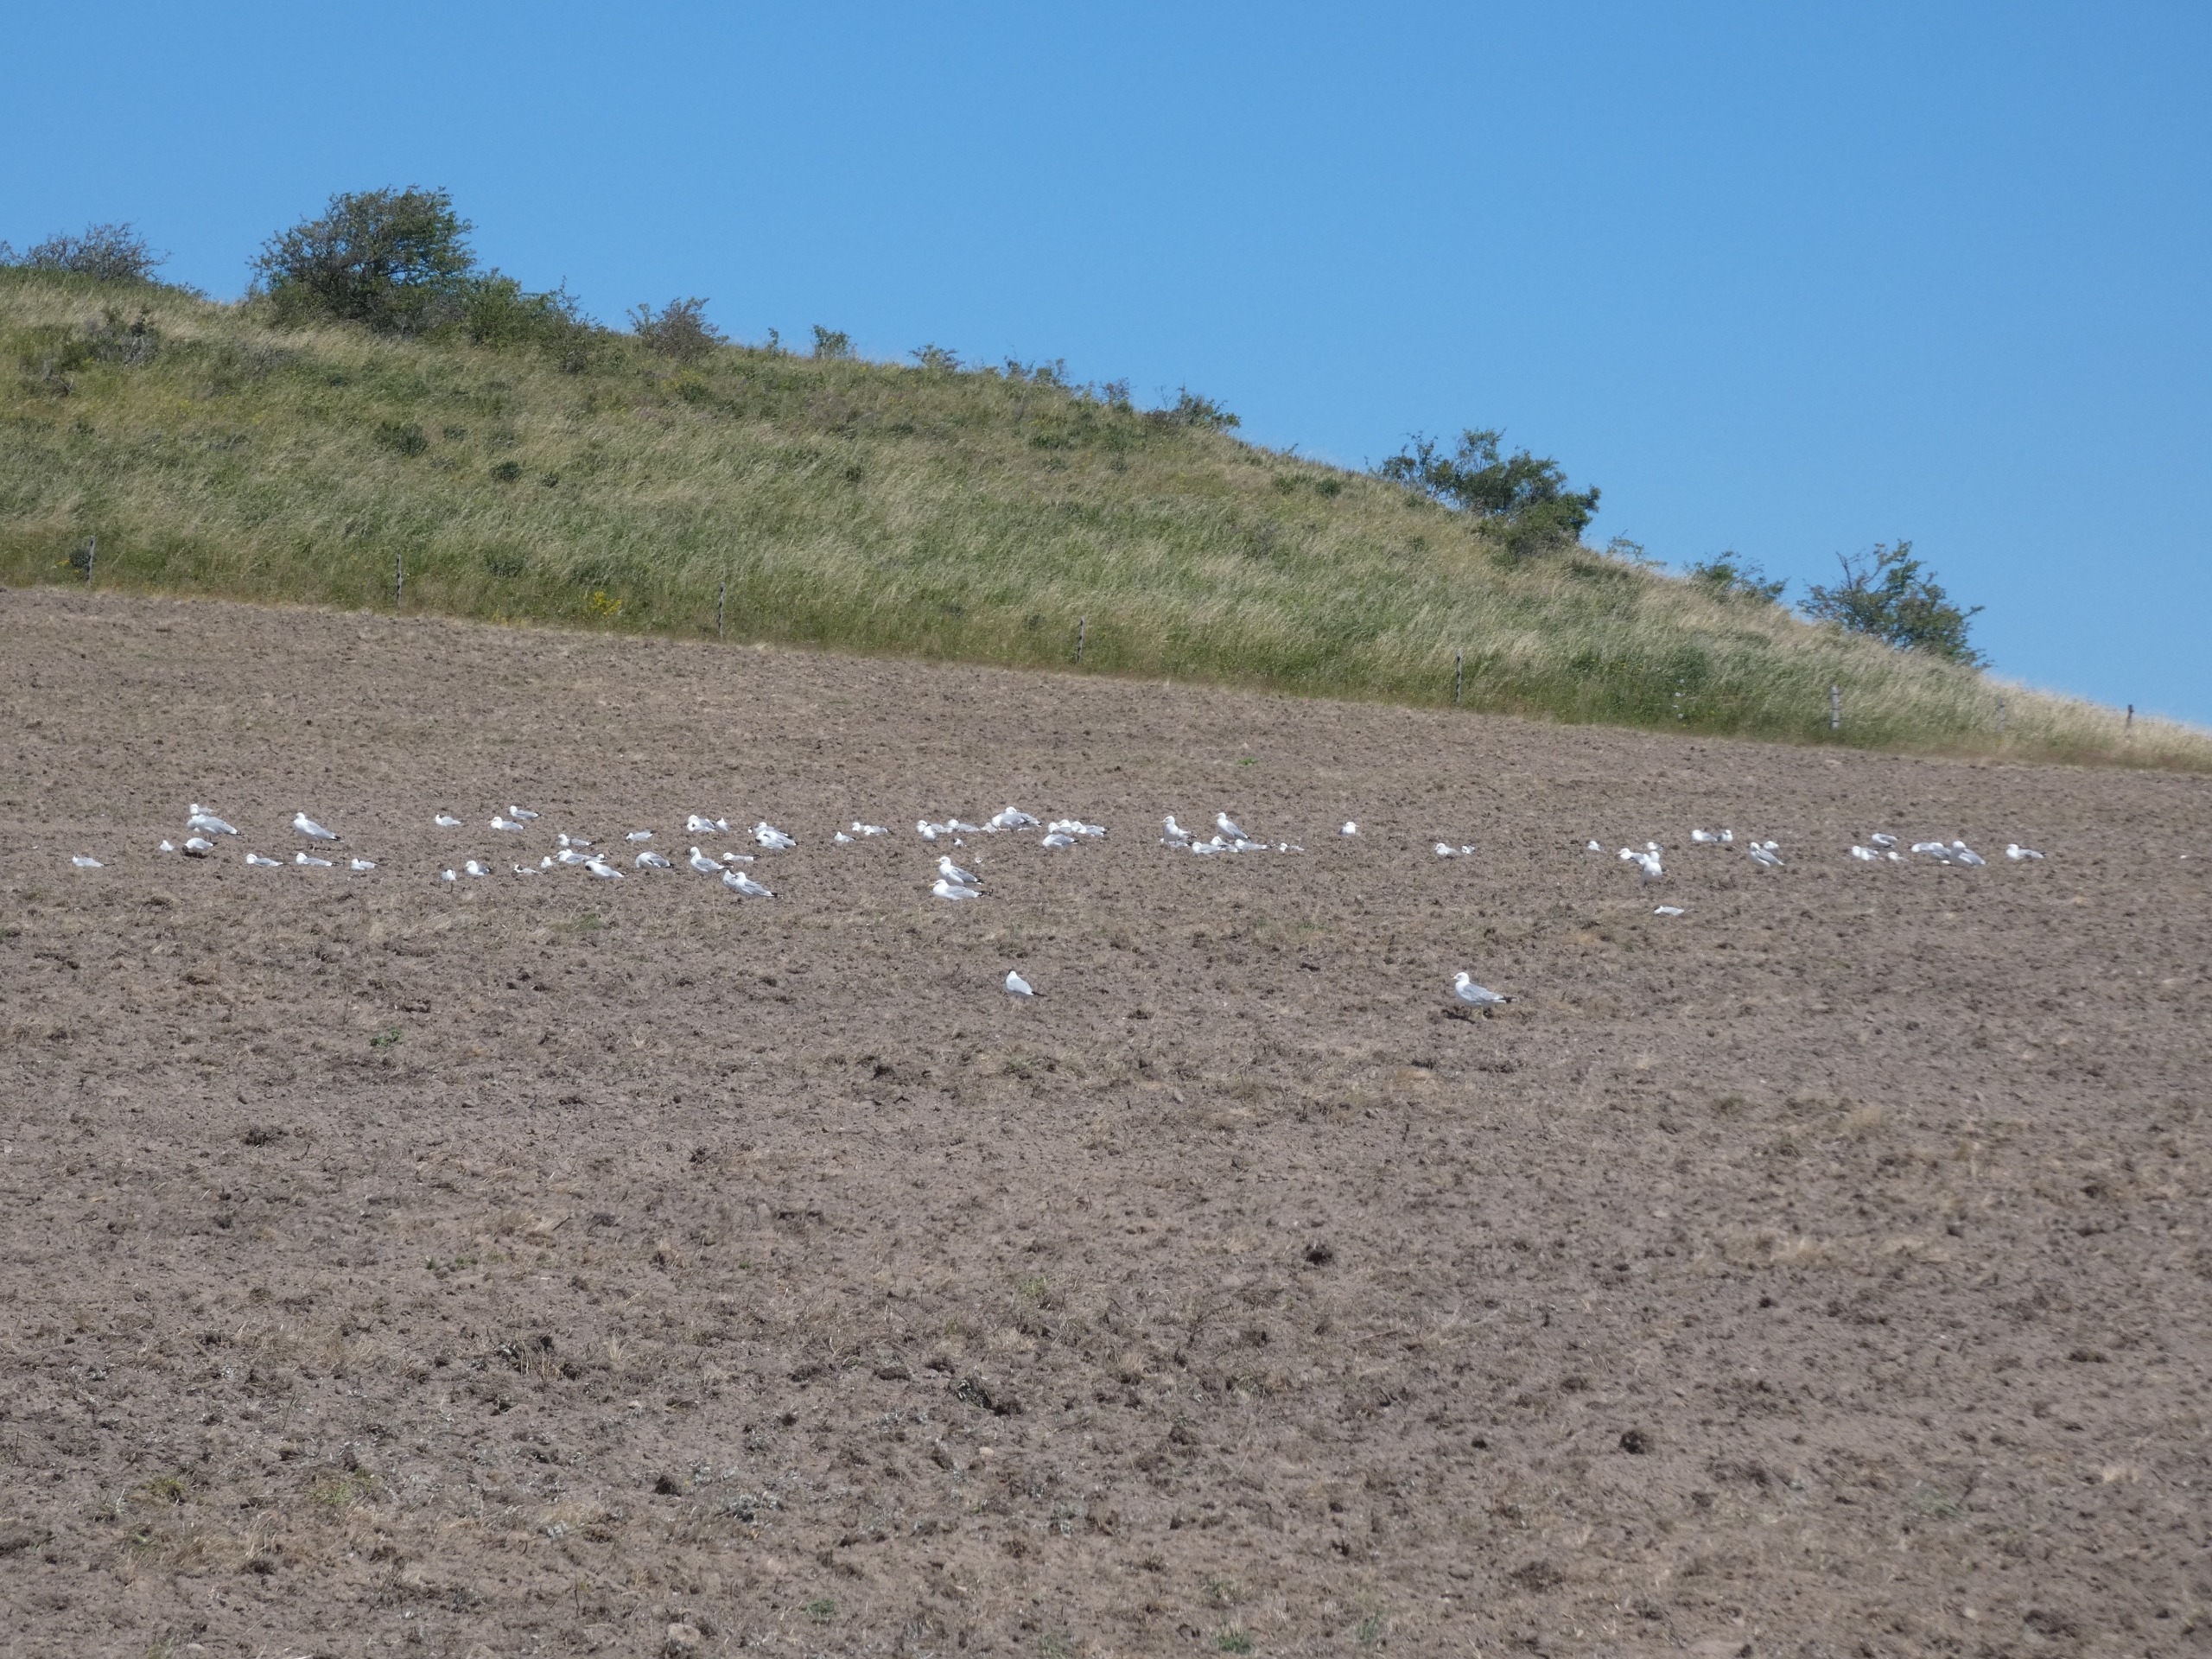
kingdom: Animalia
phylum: Chordata
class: Aves
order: Charadriiformes
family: Laridae
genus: Chroicocephalus
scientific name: Chroicocephalus ridibundus
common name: Hættemåge
